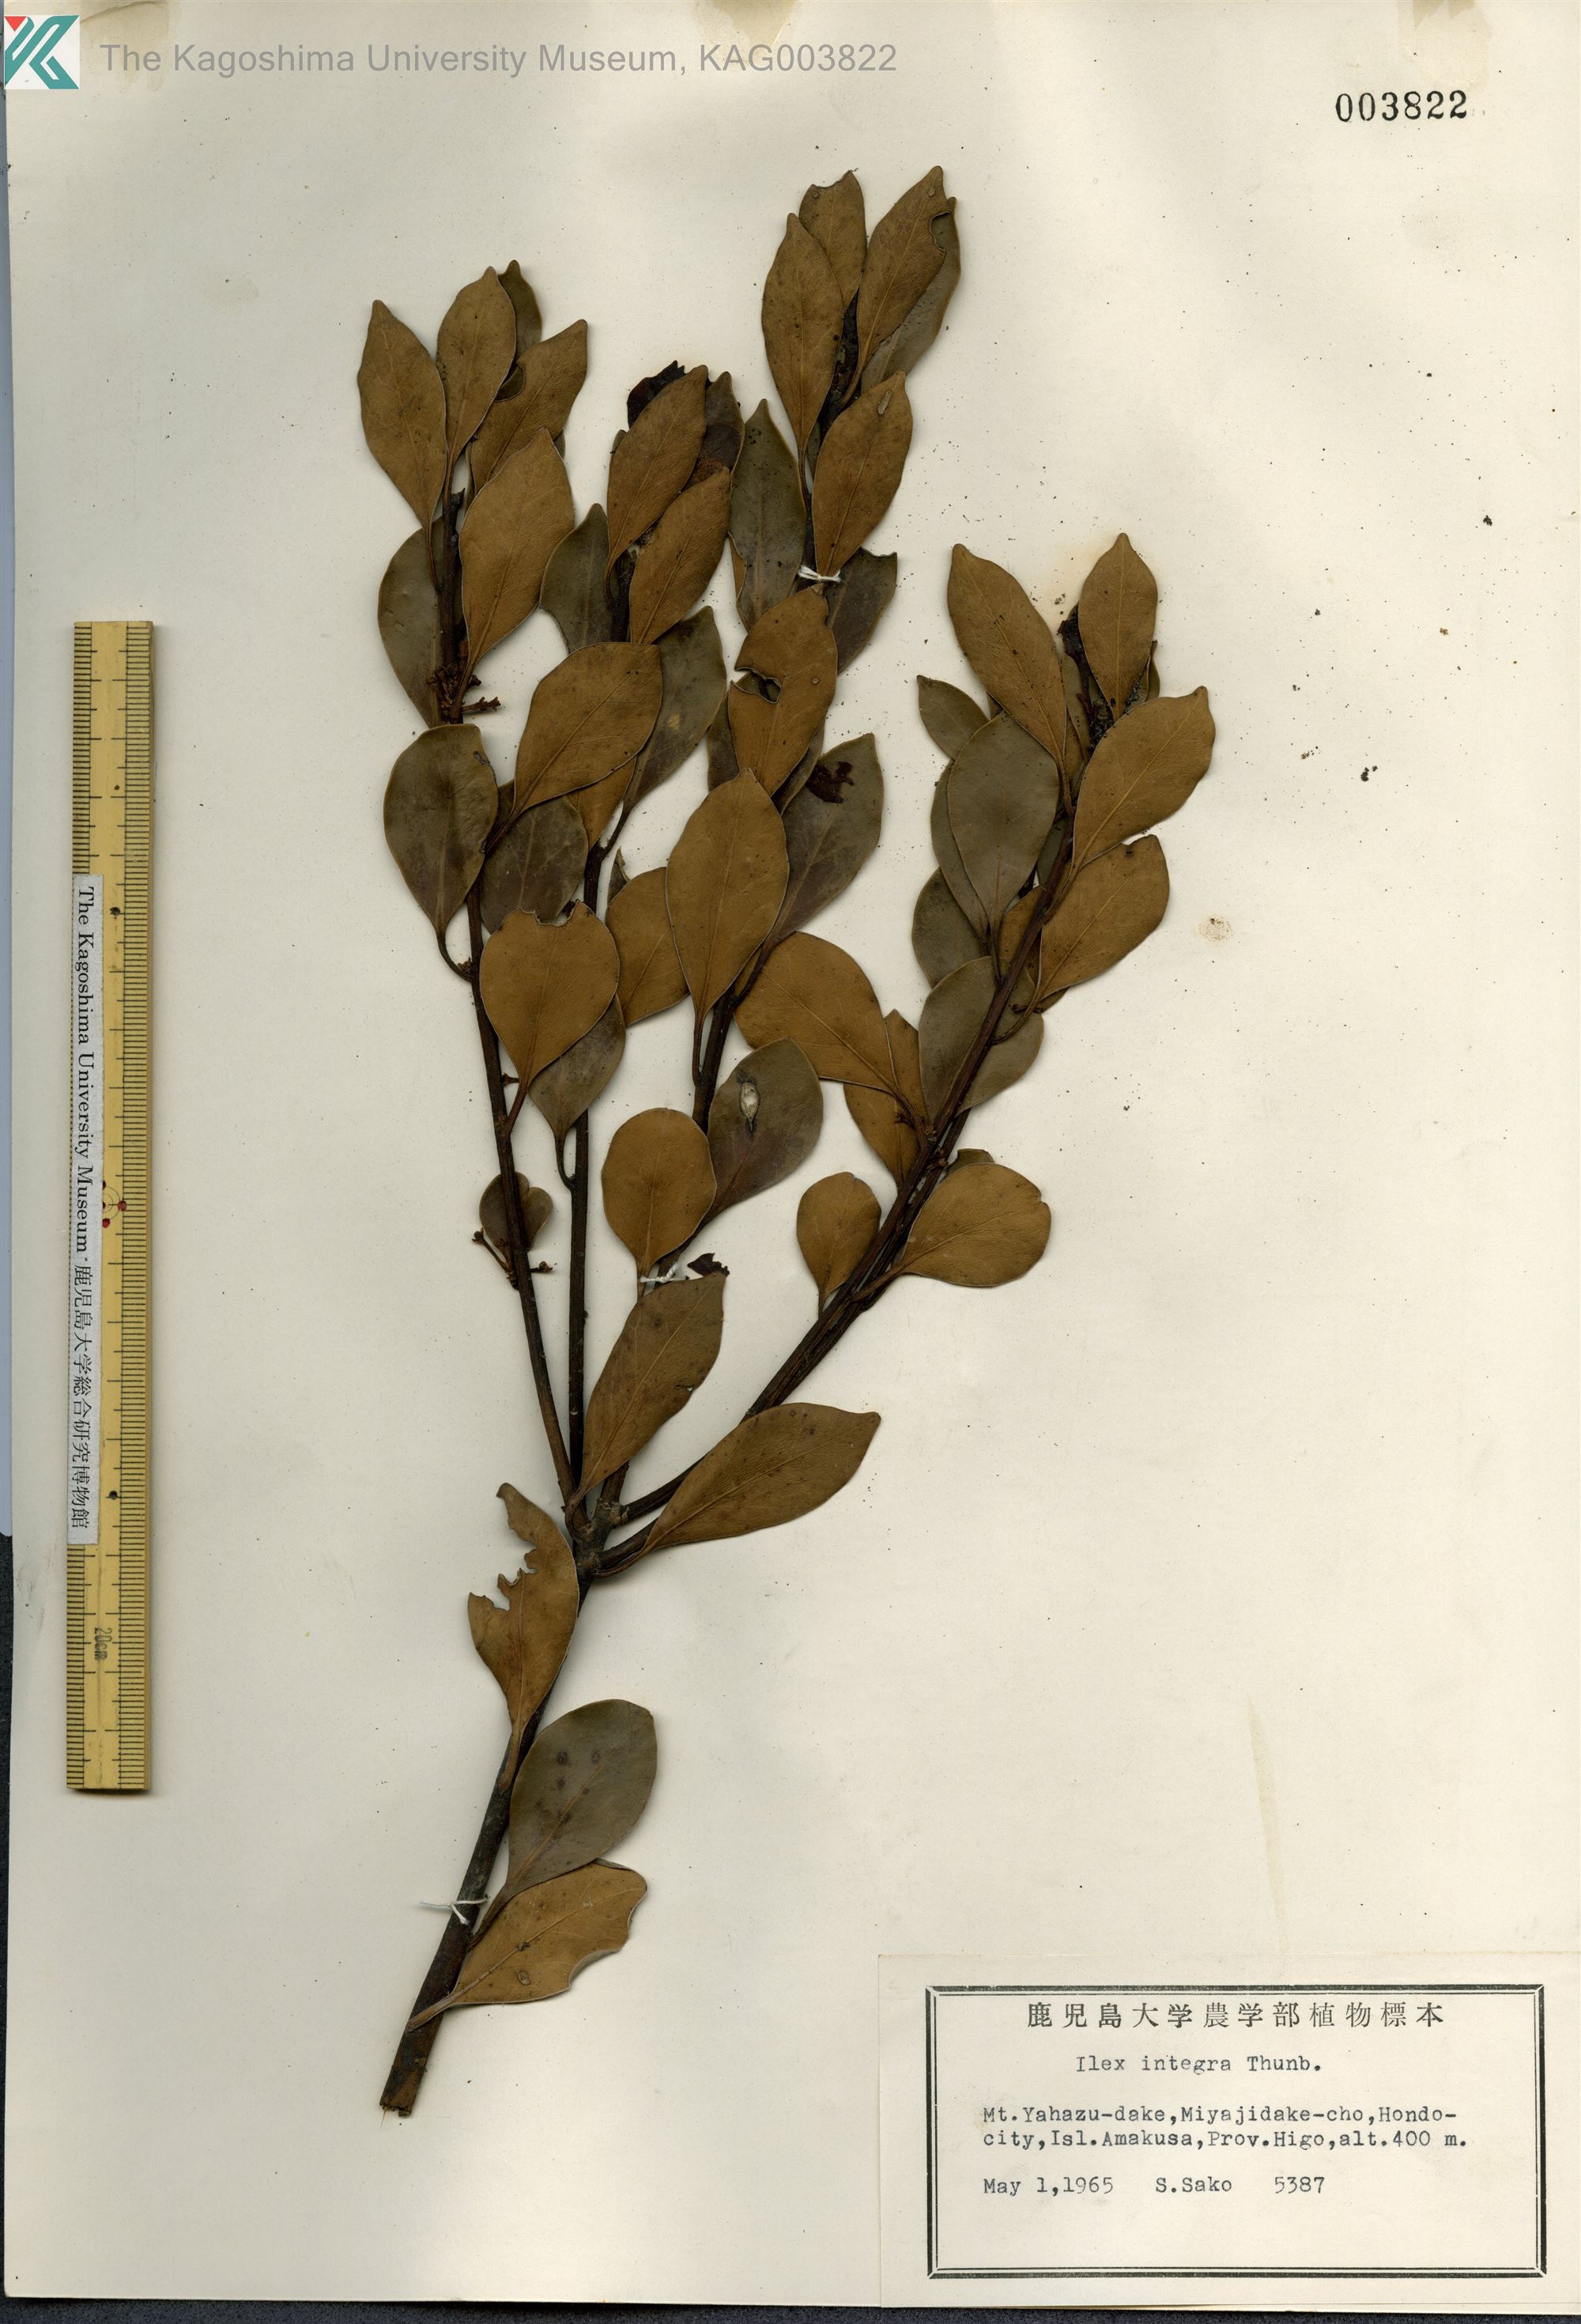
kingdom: Plantae
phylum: Tracheophyta
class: Magnoliopsida
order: Aquifoliales
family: Aquifoliaceae
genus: Ilex
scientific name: Ilex integra
